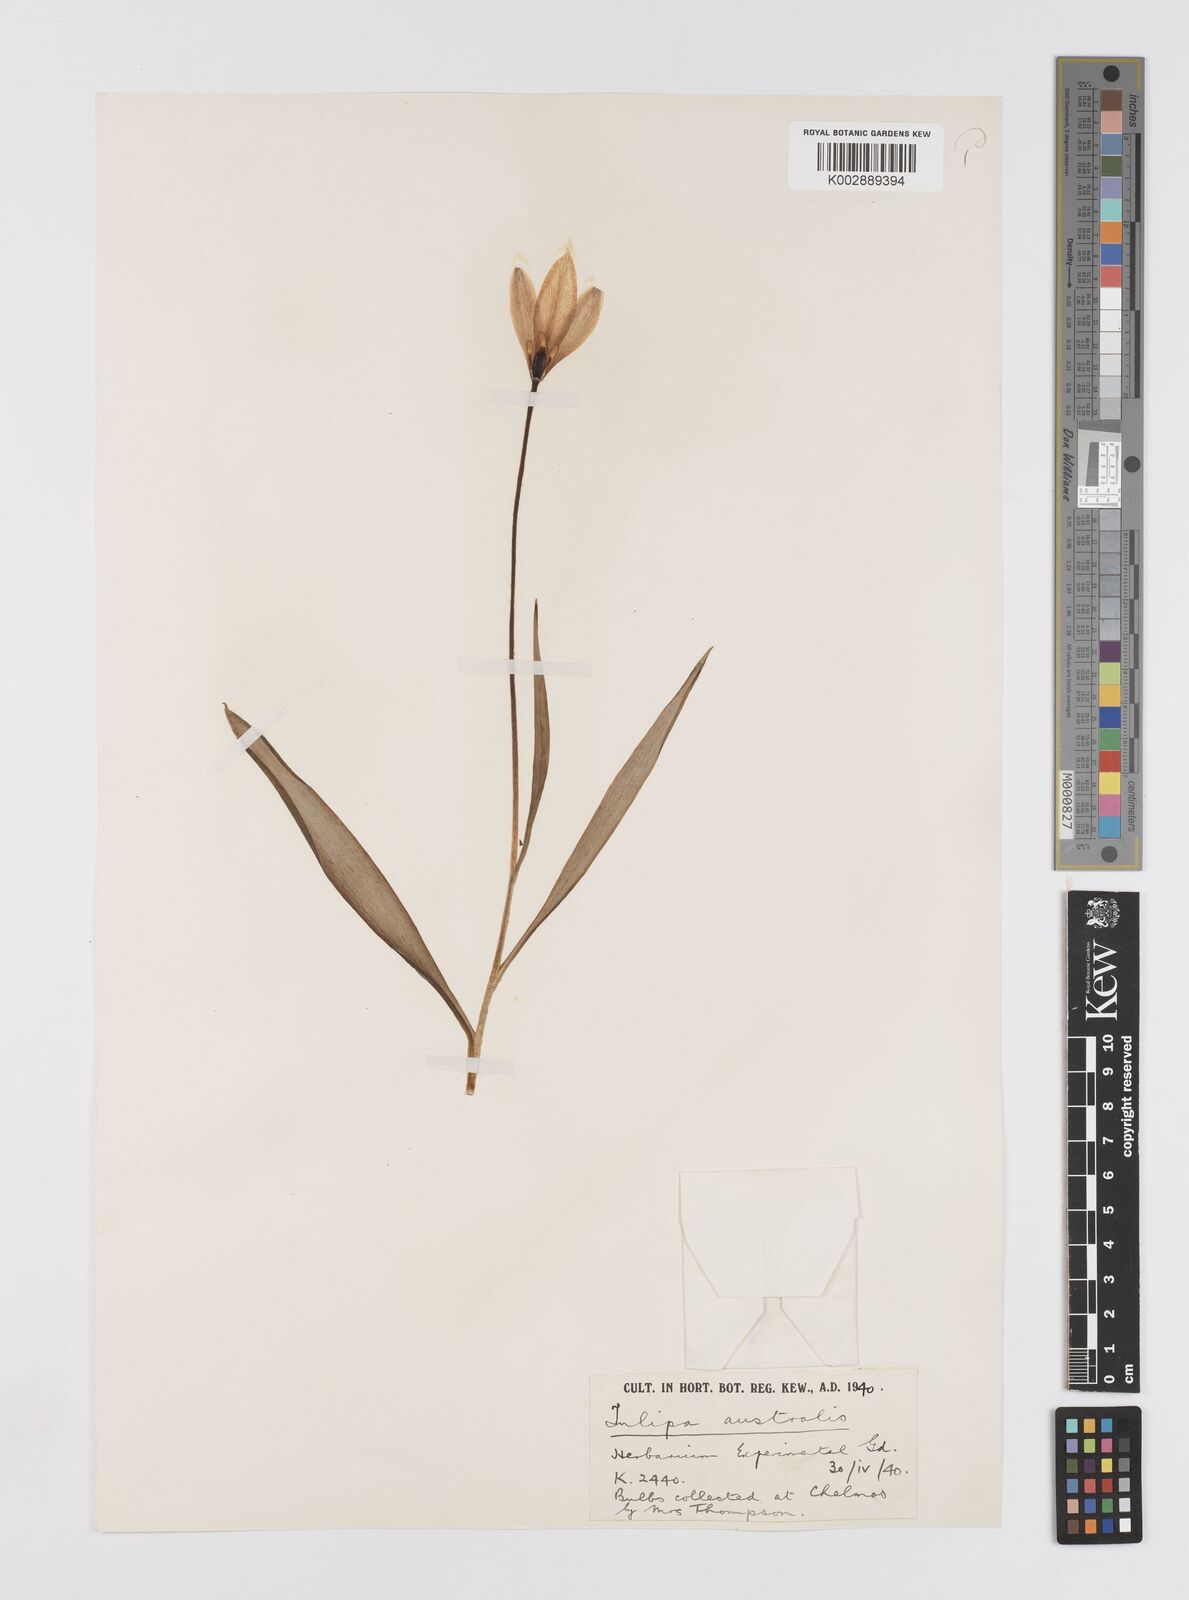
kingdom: Plantae
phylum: Tracheophyta
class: Liliopsida
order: Liliales
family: Liliaceae
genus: Tulipa
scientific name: Tulipa sylvestris
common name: Wild tulip
